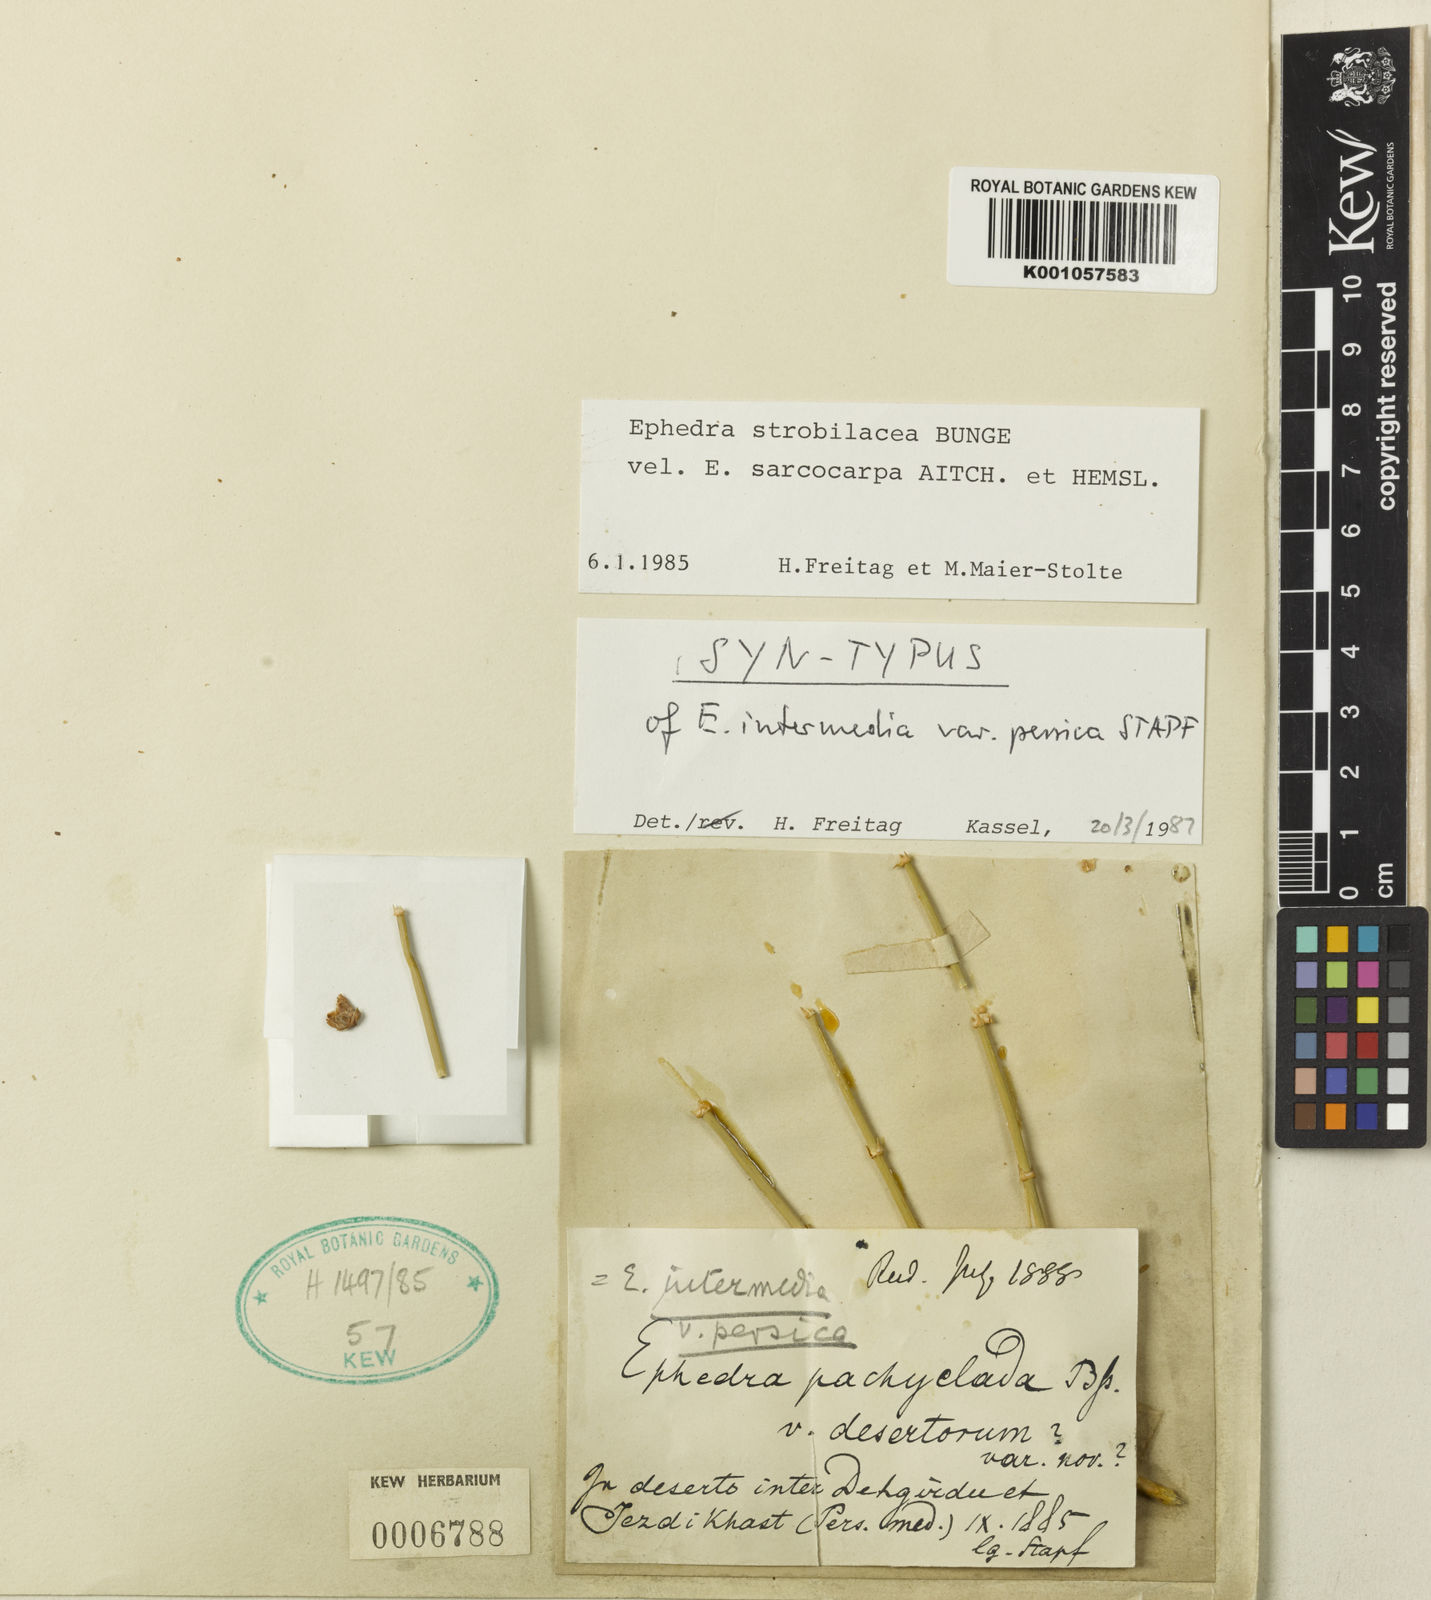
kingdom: Plantae
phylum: Tracheophyta
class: Gnetopsida
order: Ephedrales
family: Ephedraceae
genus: Ephedra
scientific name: Ephedra intermedia
